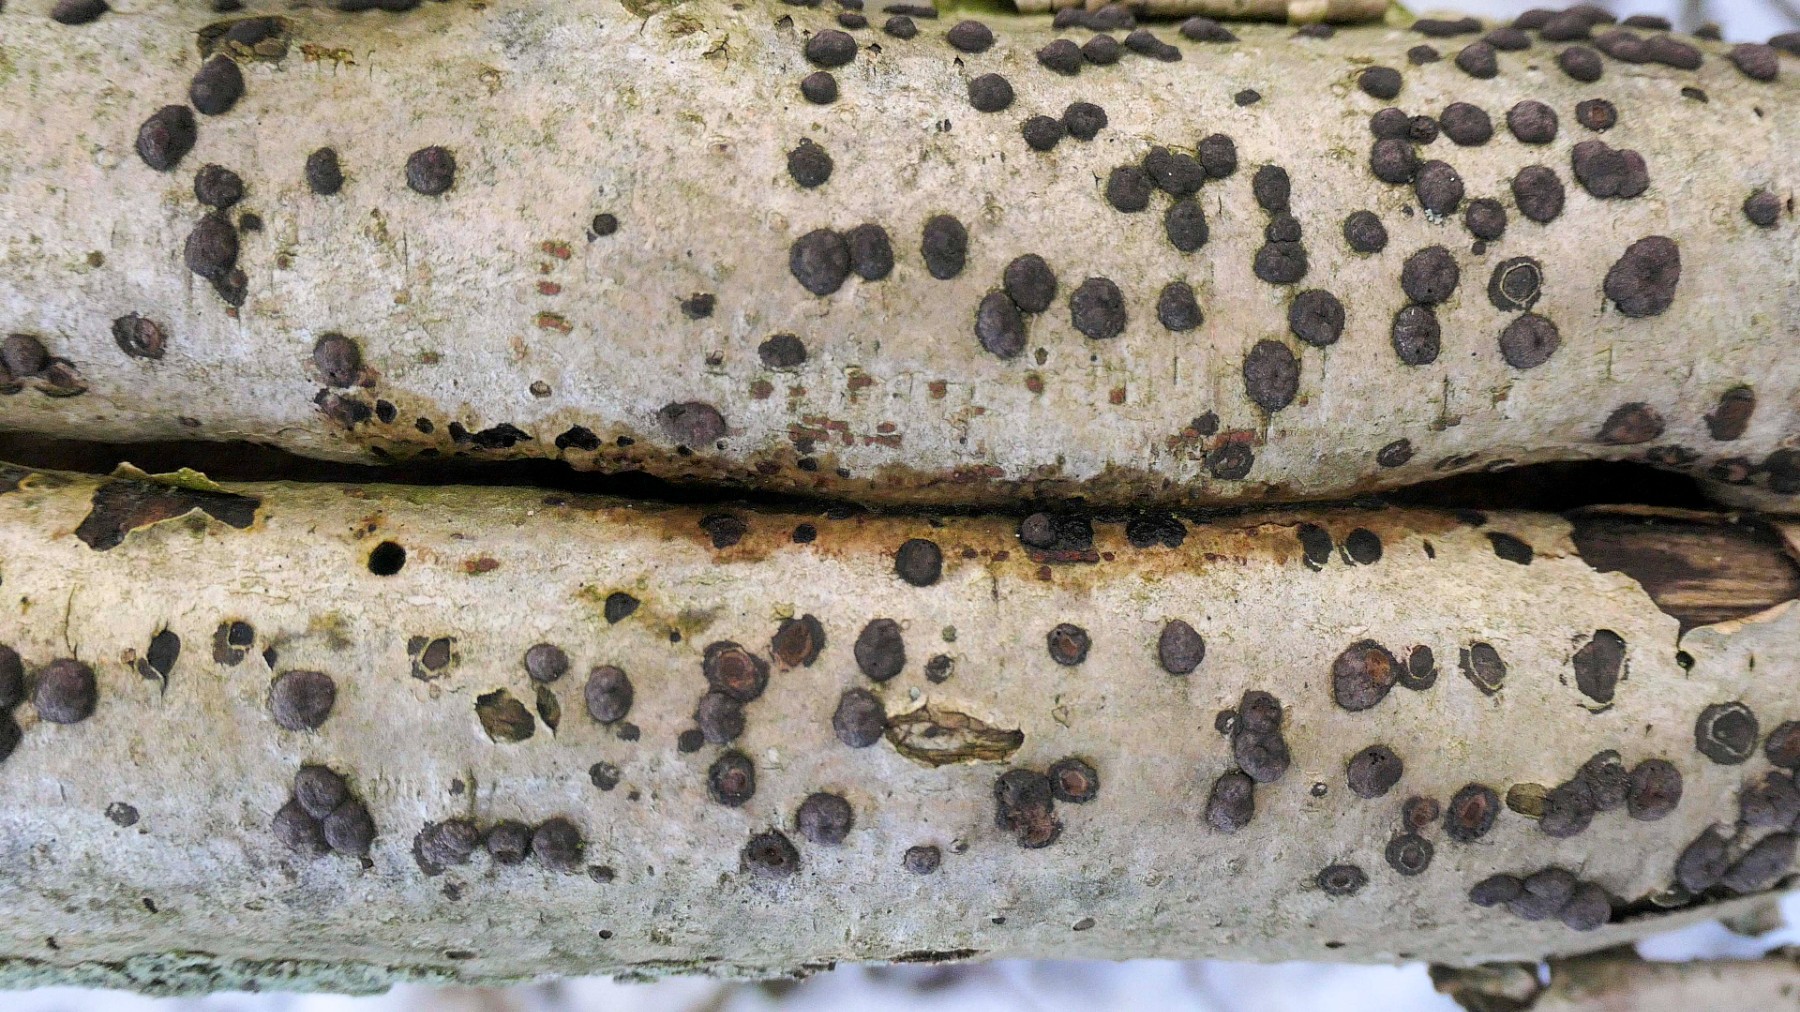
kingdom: Fungi
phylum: Ascomycota
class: Sordariomycetes
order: Xylariales
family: Hypoxylaceae
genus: Hypoxylon
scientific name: Hypoxylon fuscum
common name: kegleformet kulbær
